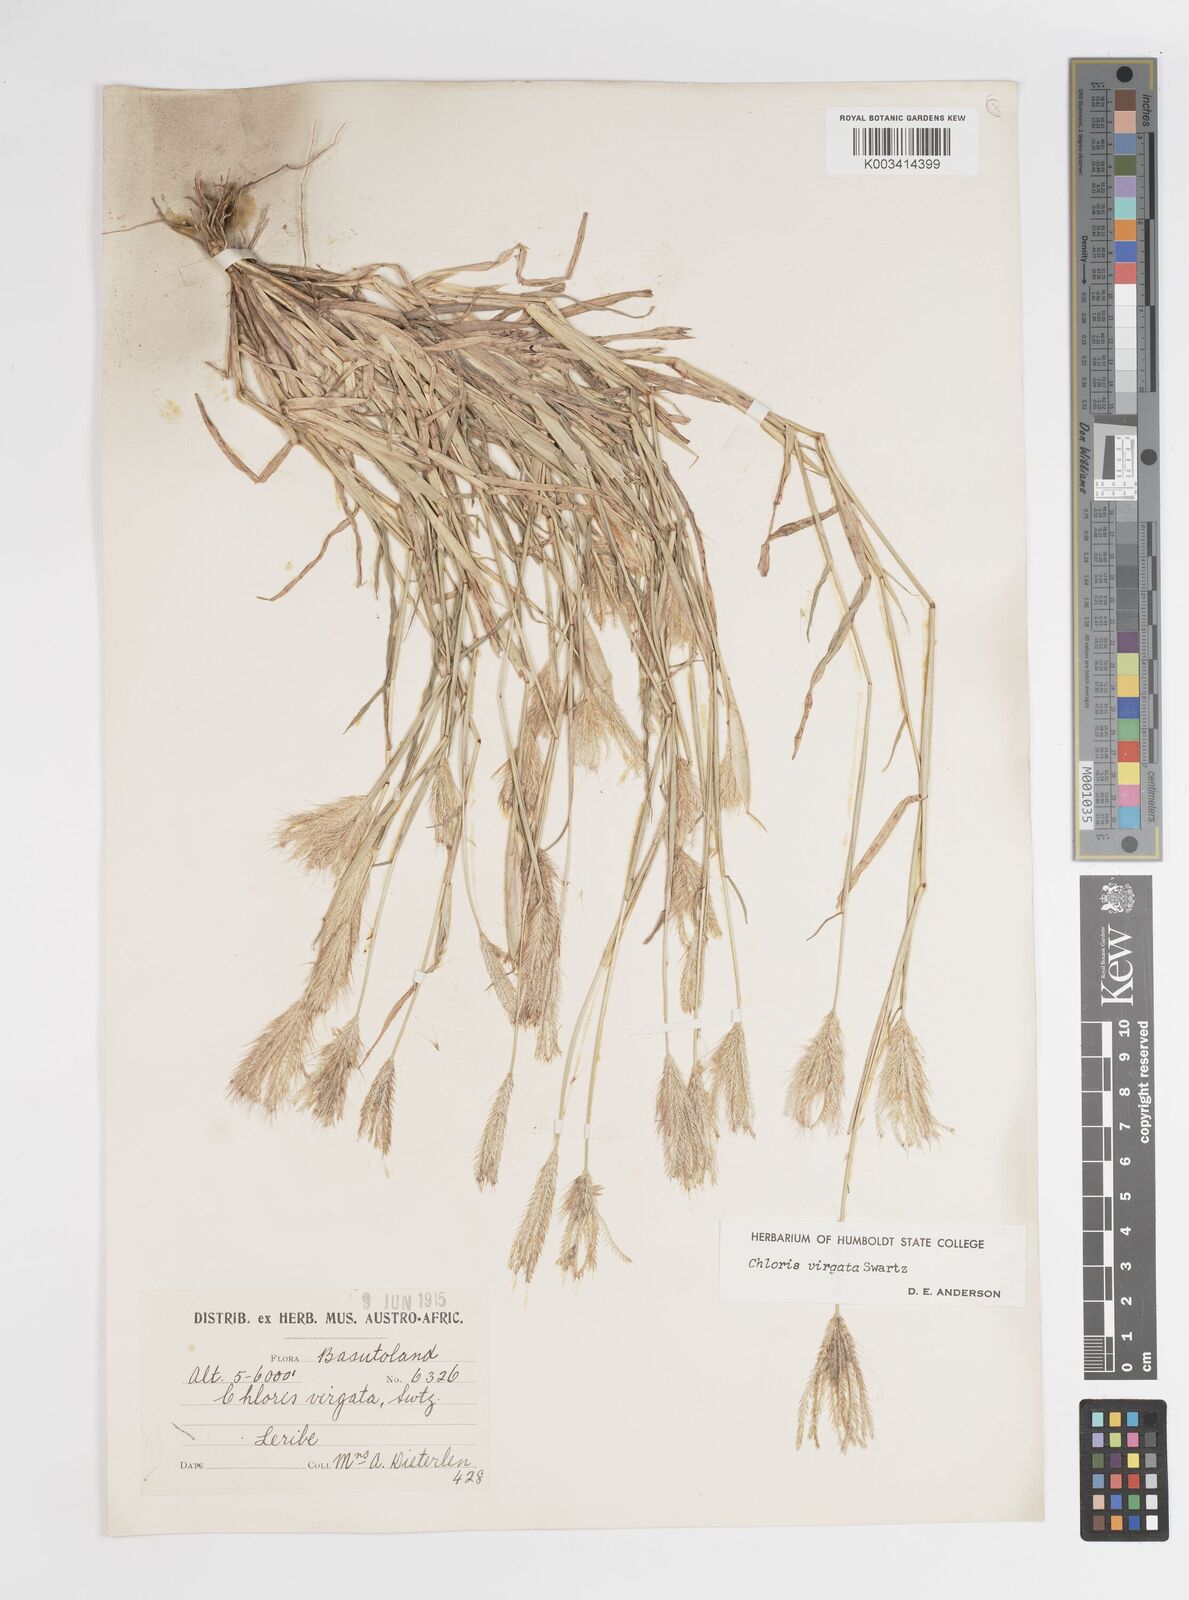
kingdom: Plantae
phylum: Tracheophyta
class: Liliopsida
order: Poales
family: Poaceae
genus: Chloris
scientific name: Chloris virgata
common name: Feathery rhodes-grass
